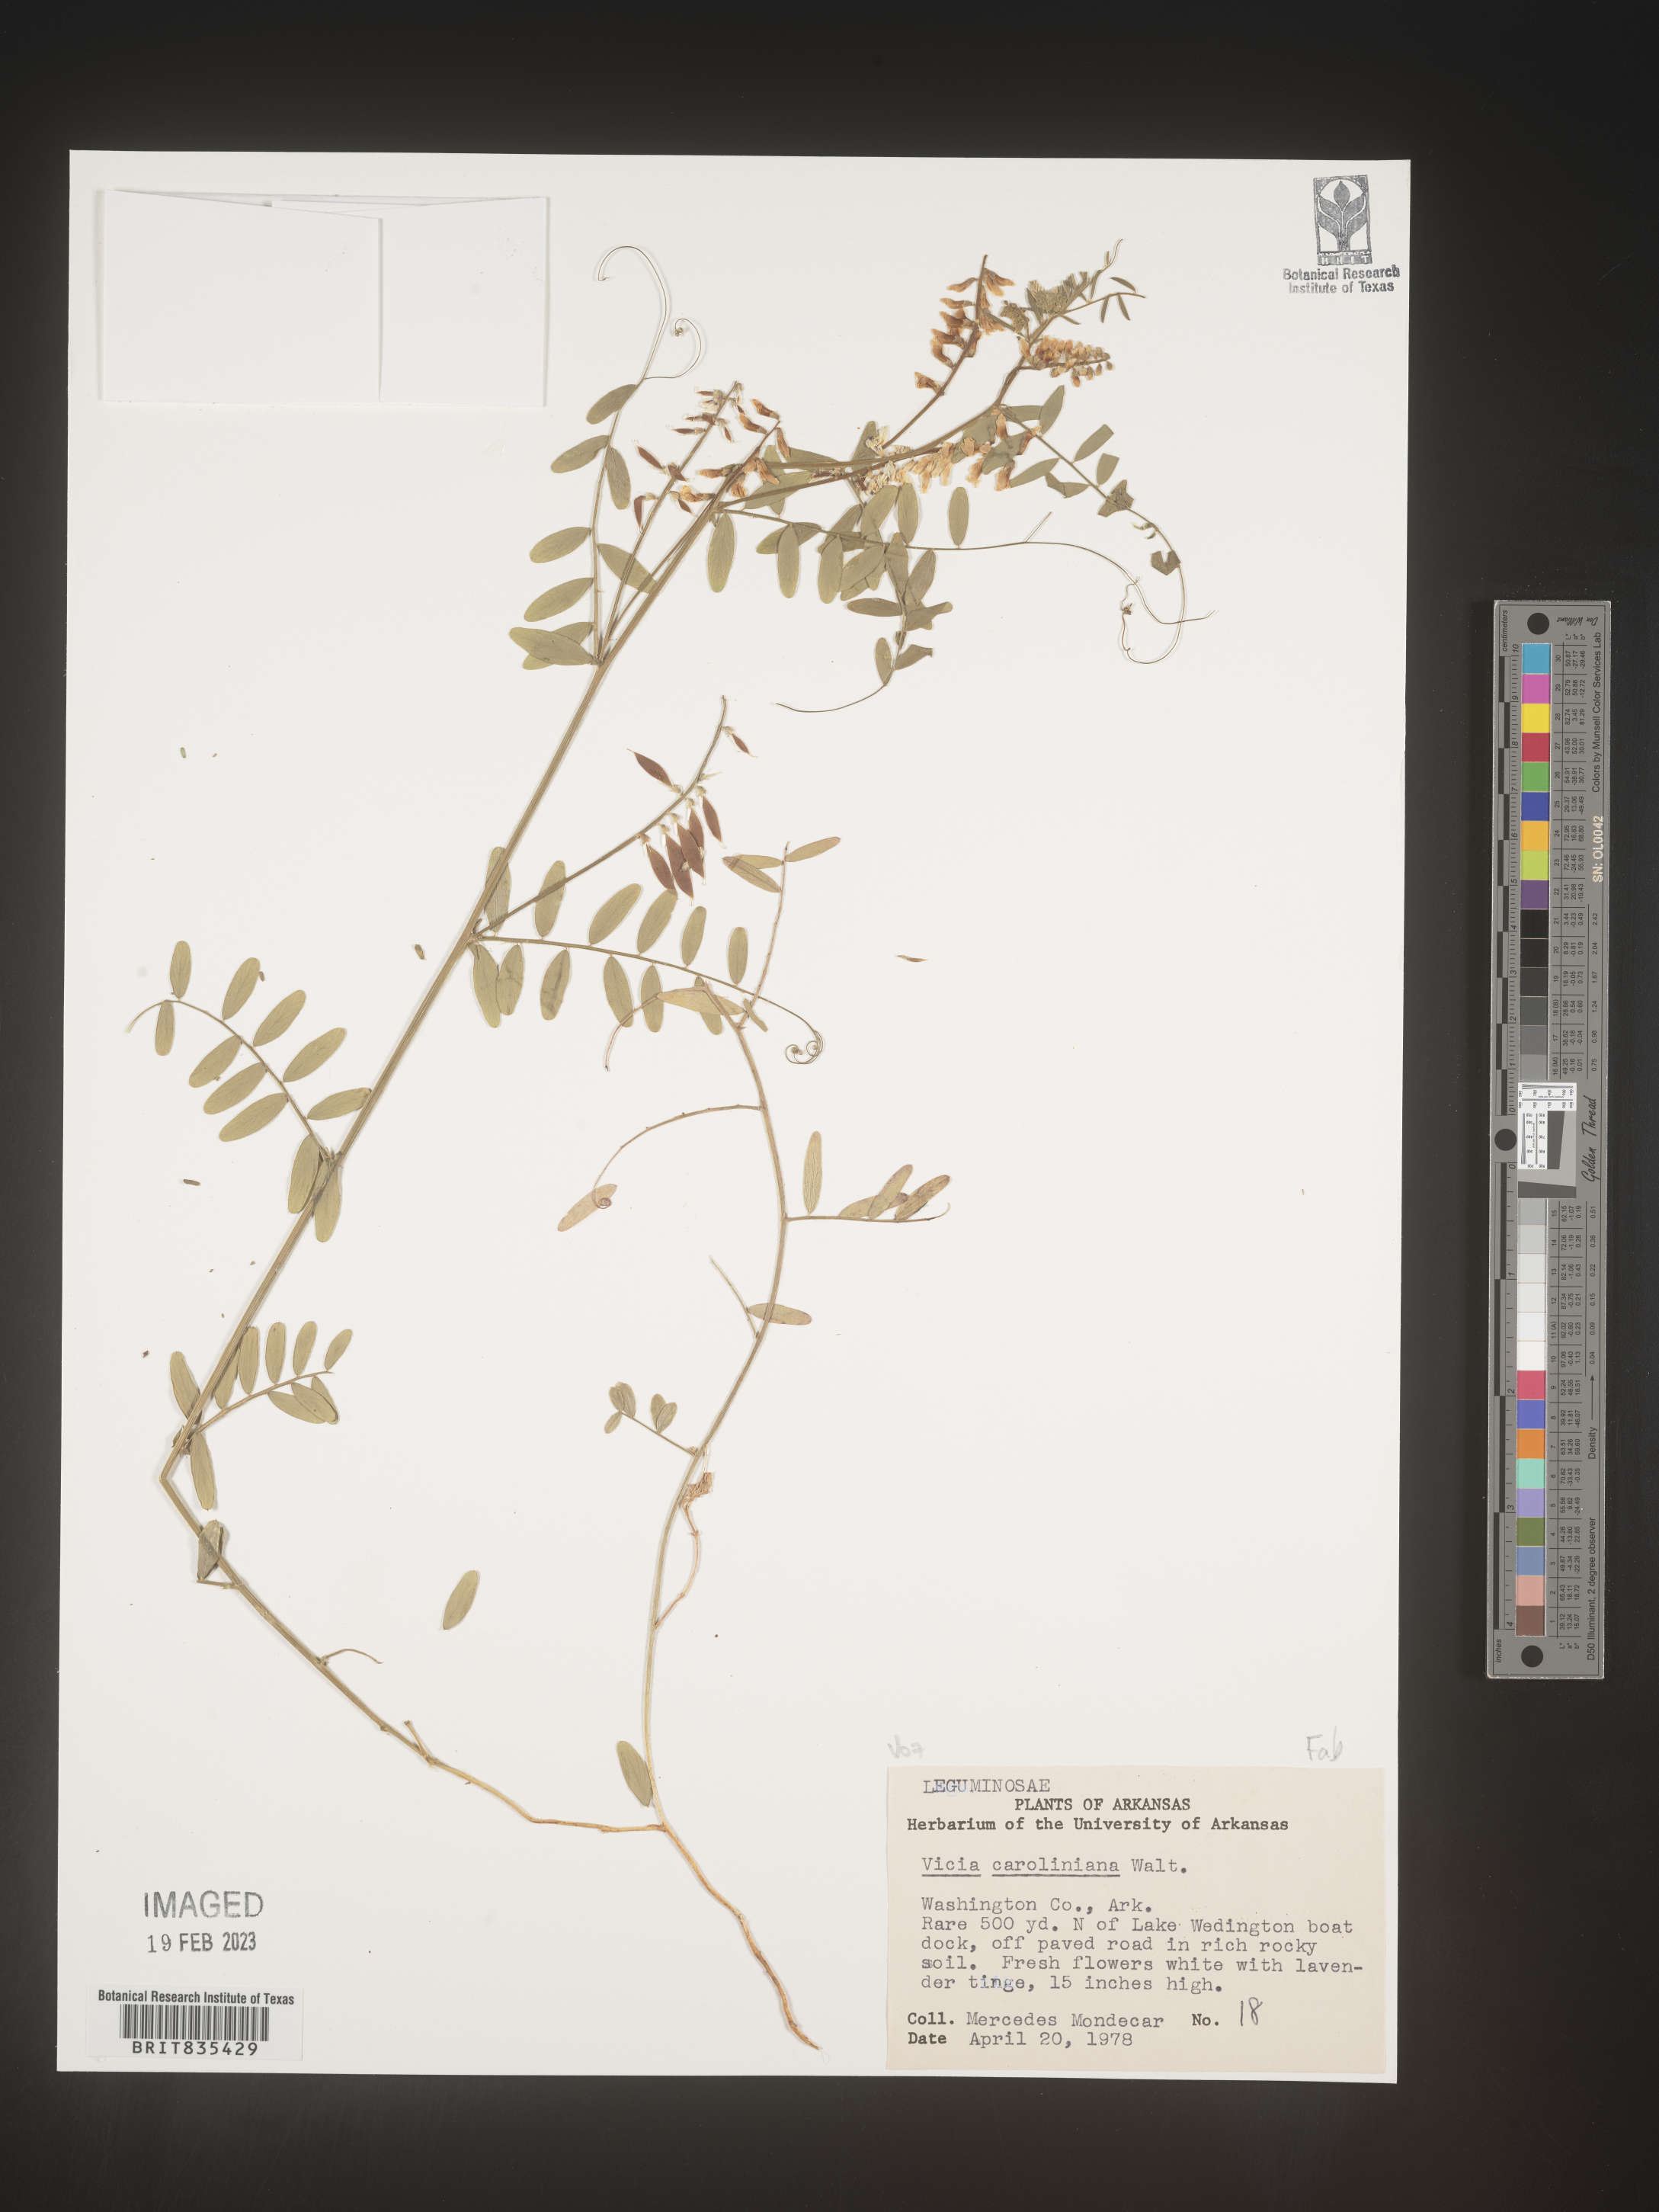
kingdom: Plantae
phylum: Tracheophyta
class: Magnoliopsida
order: Fabales
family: Fabaceae
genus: Vicia
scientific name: Vicia caroliniana
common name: Carolina vetch
